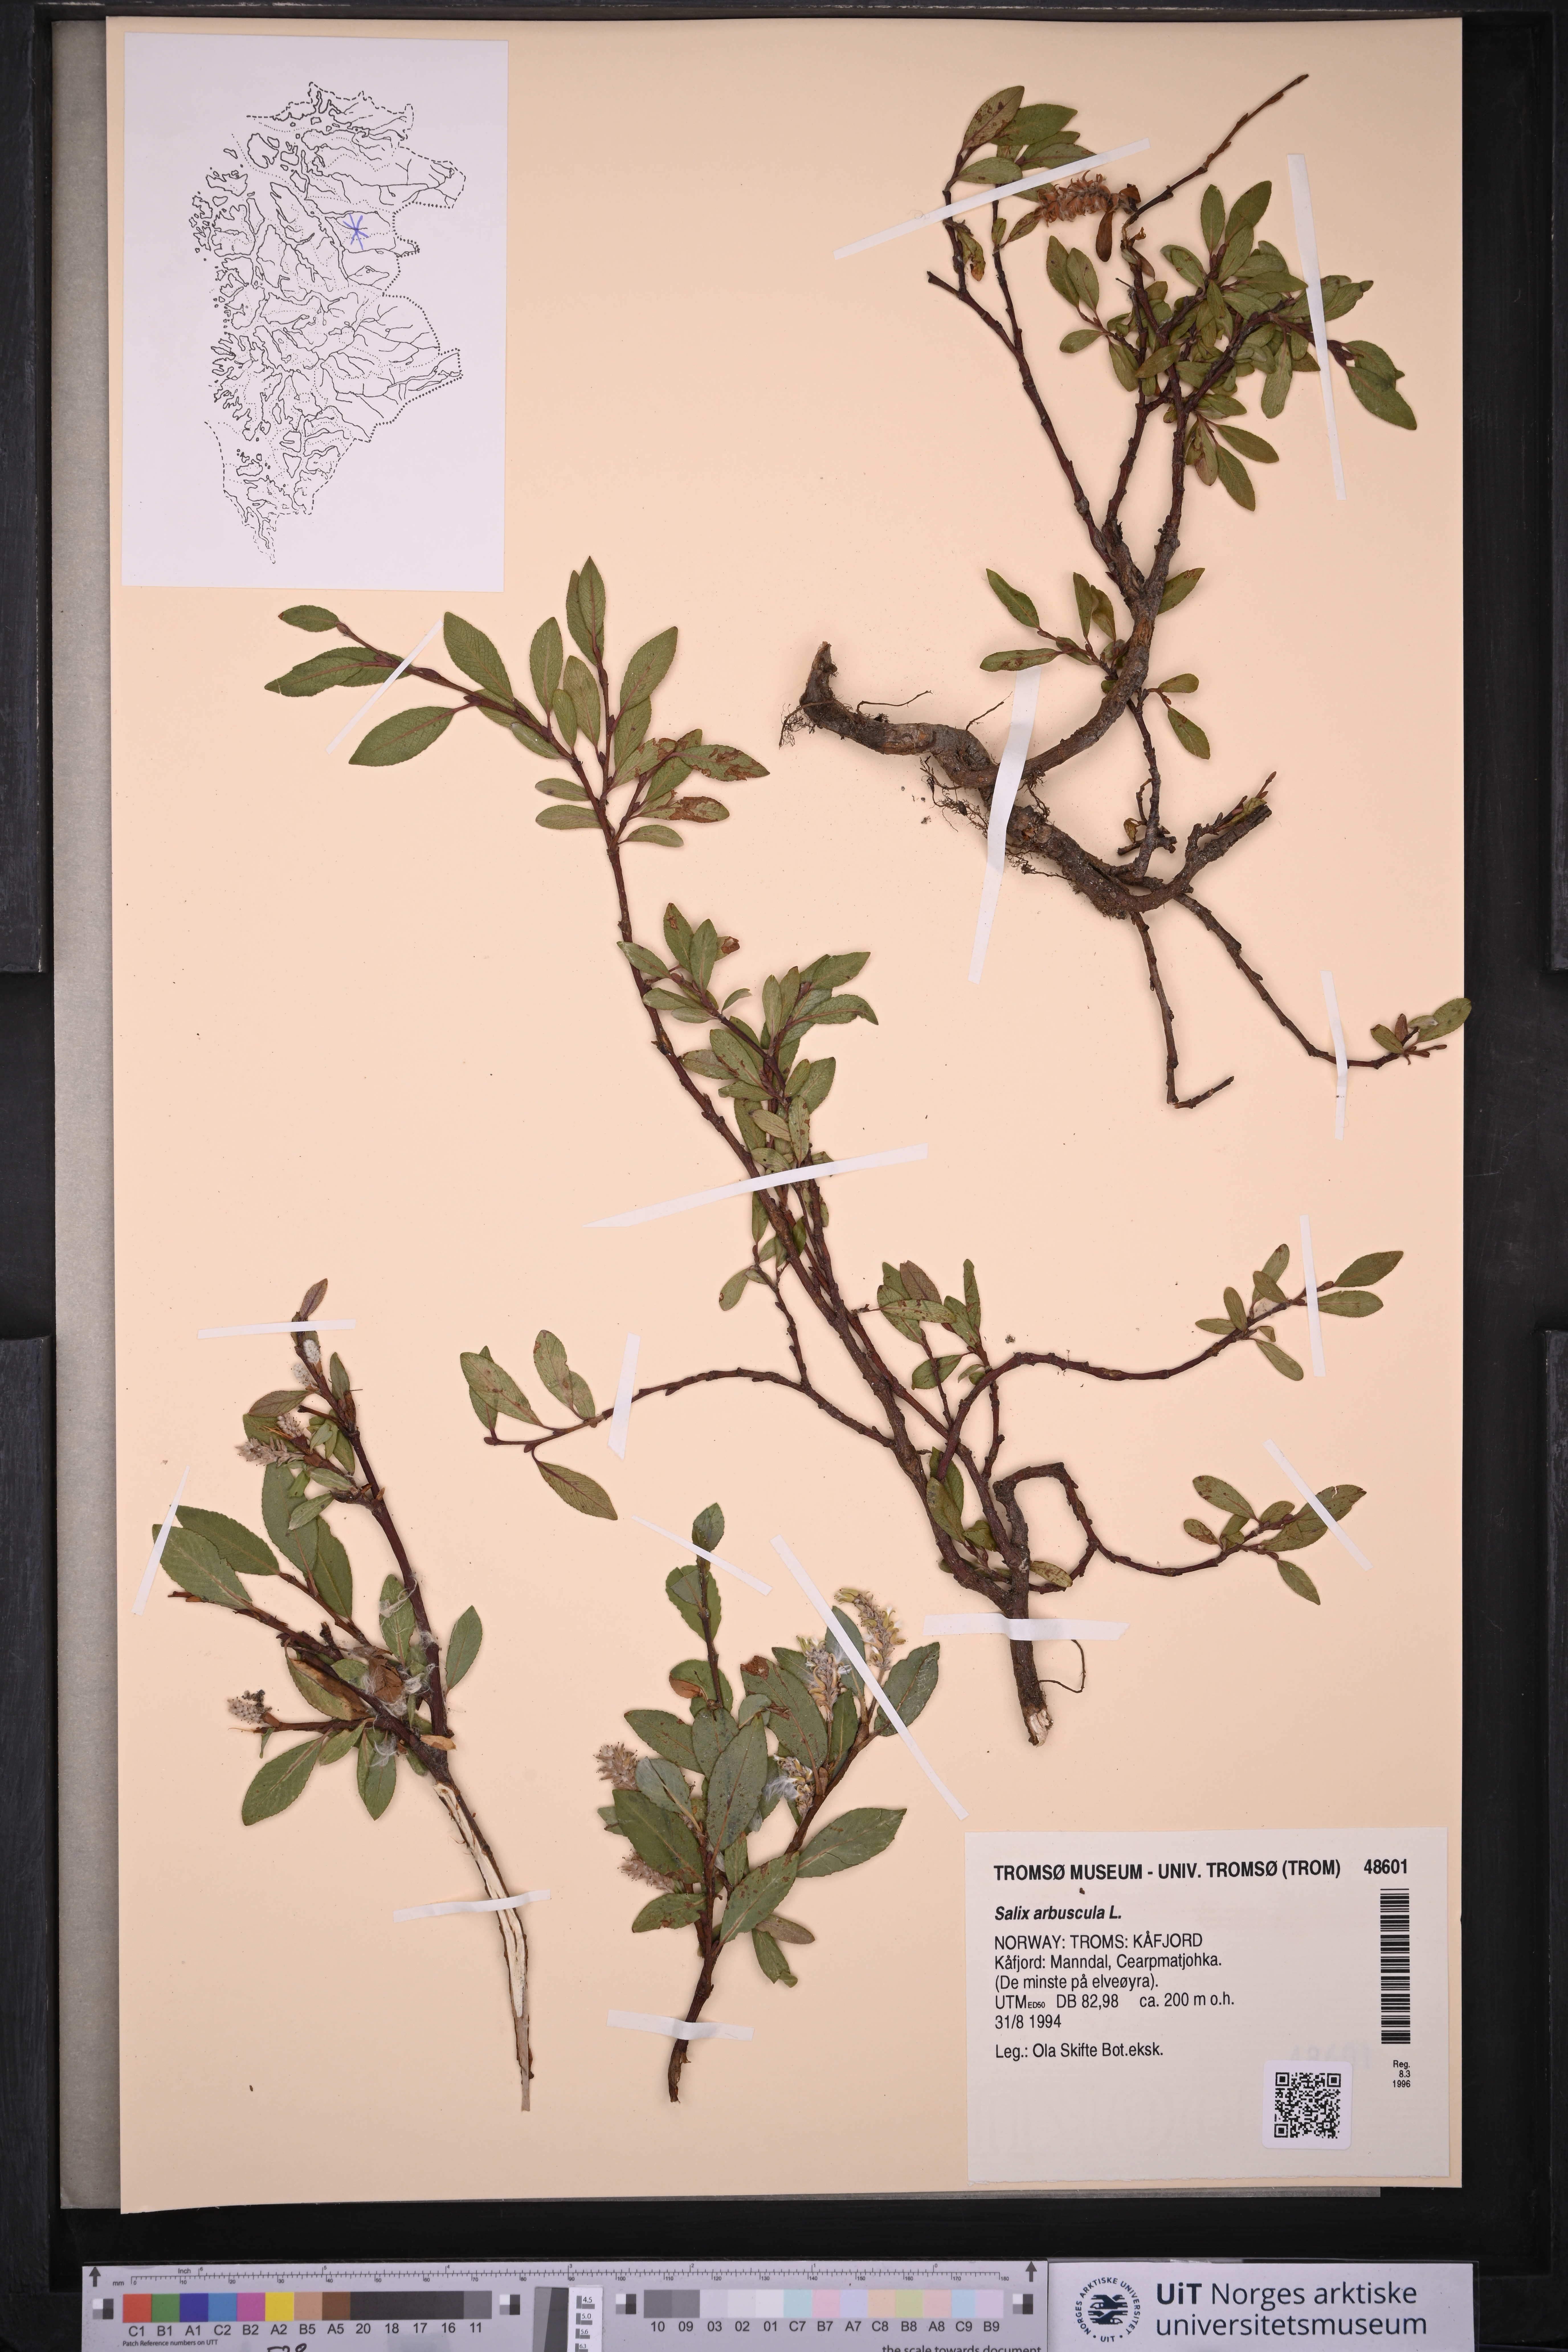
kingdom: Plantae
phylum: Tracheophyta
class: Magnoliopsida
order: Malpighiales
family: Salicaceae
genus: Salix
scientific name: Salix arbuscula
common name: Mountain willow
